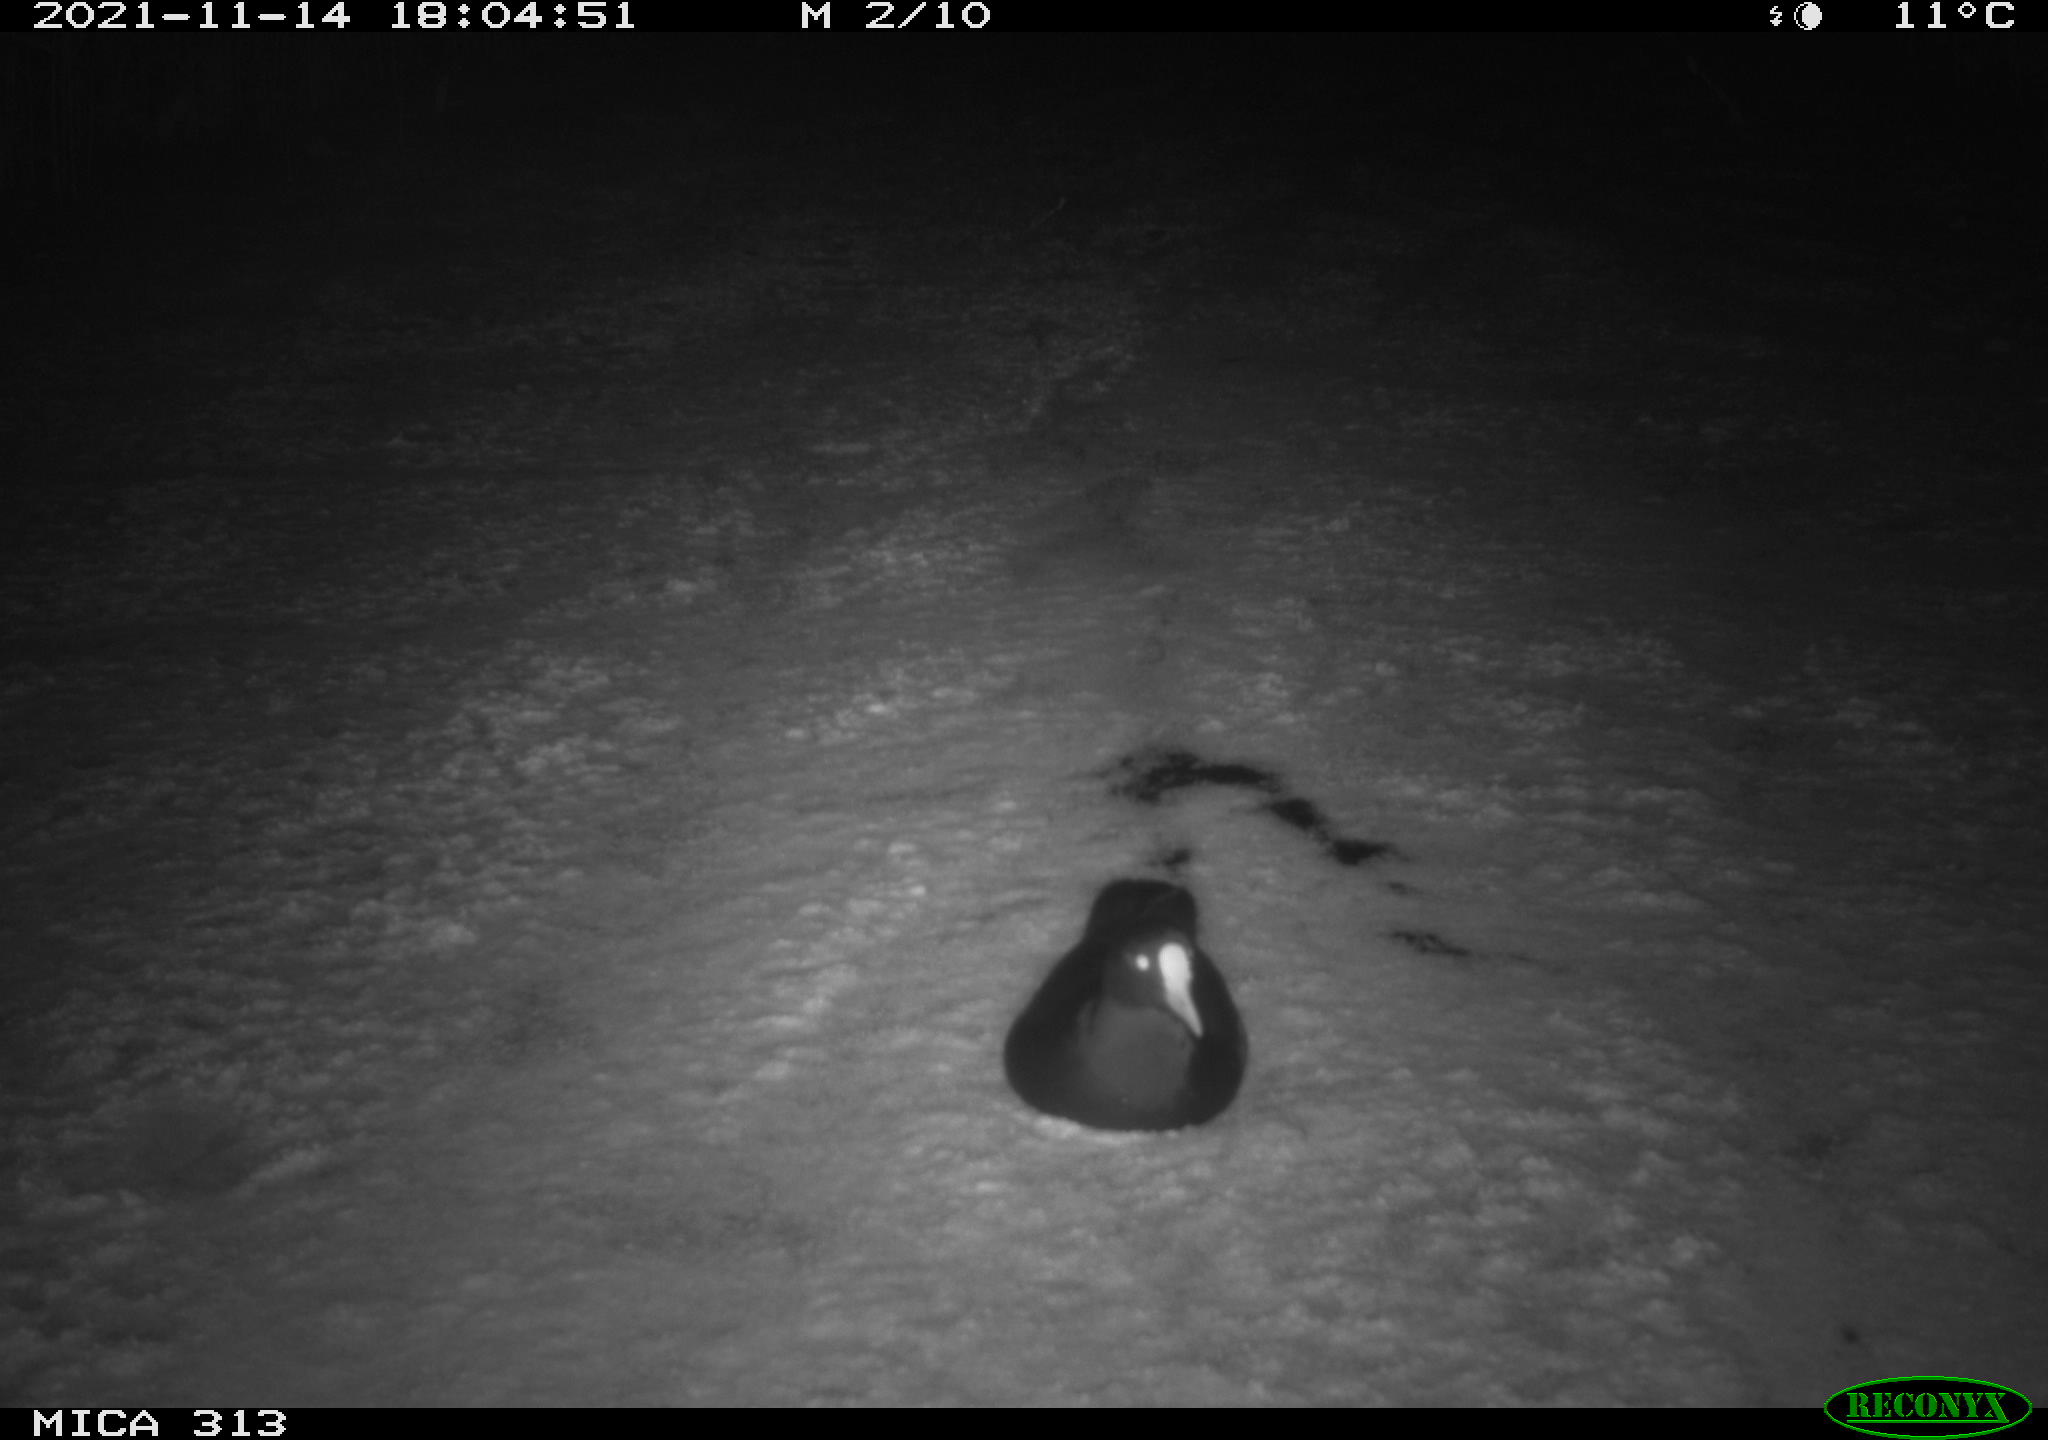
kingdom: Animalia
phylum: Chordata
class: Aves
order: Gruiformes
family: Rallidae
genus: Gallinula
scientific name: Gallinula chloropus
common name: Common moorhen
